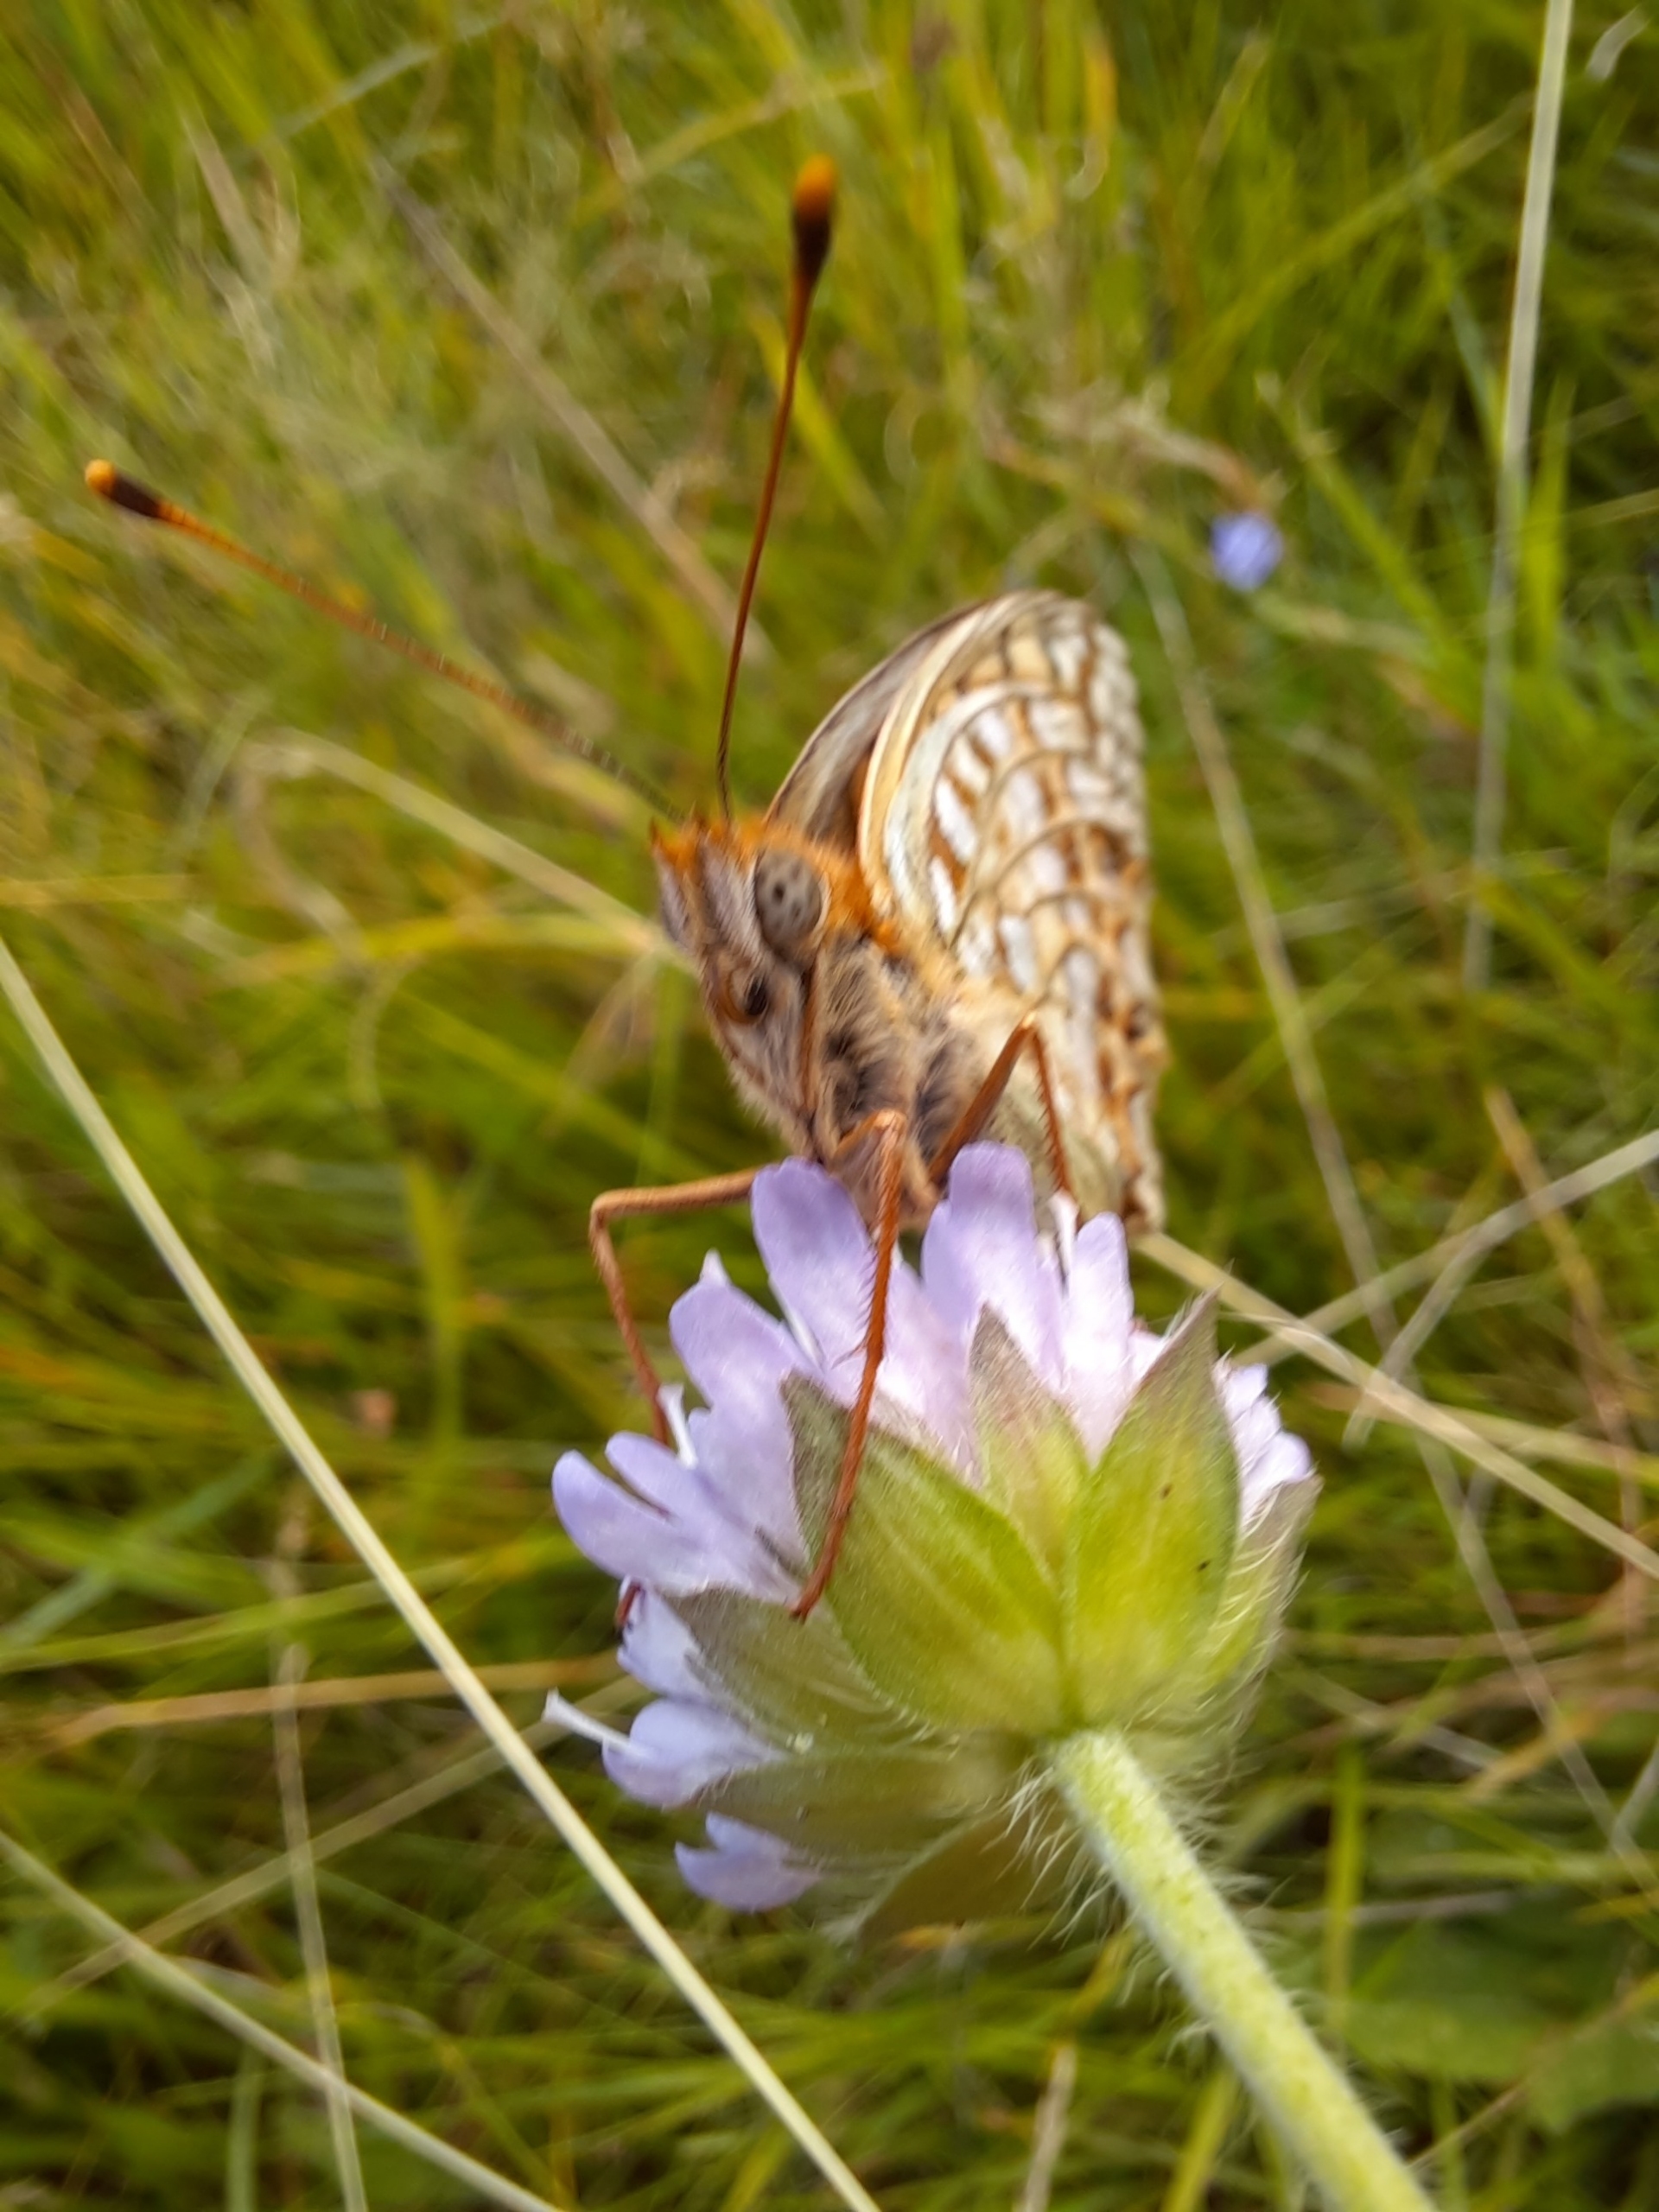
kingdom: Animalia
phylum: Arthropoda
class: Insecta
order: Lepidoptera
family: Nymphalidae
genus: Fabriciana
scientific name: Fabriciana niobe
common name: Klitperlemorsommerfugl
